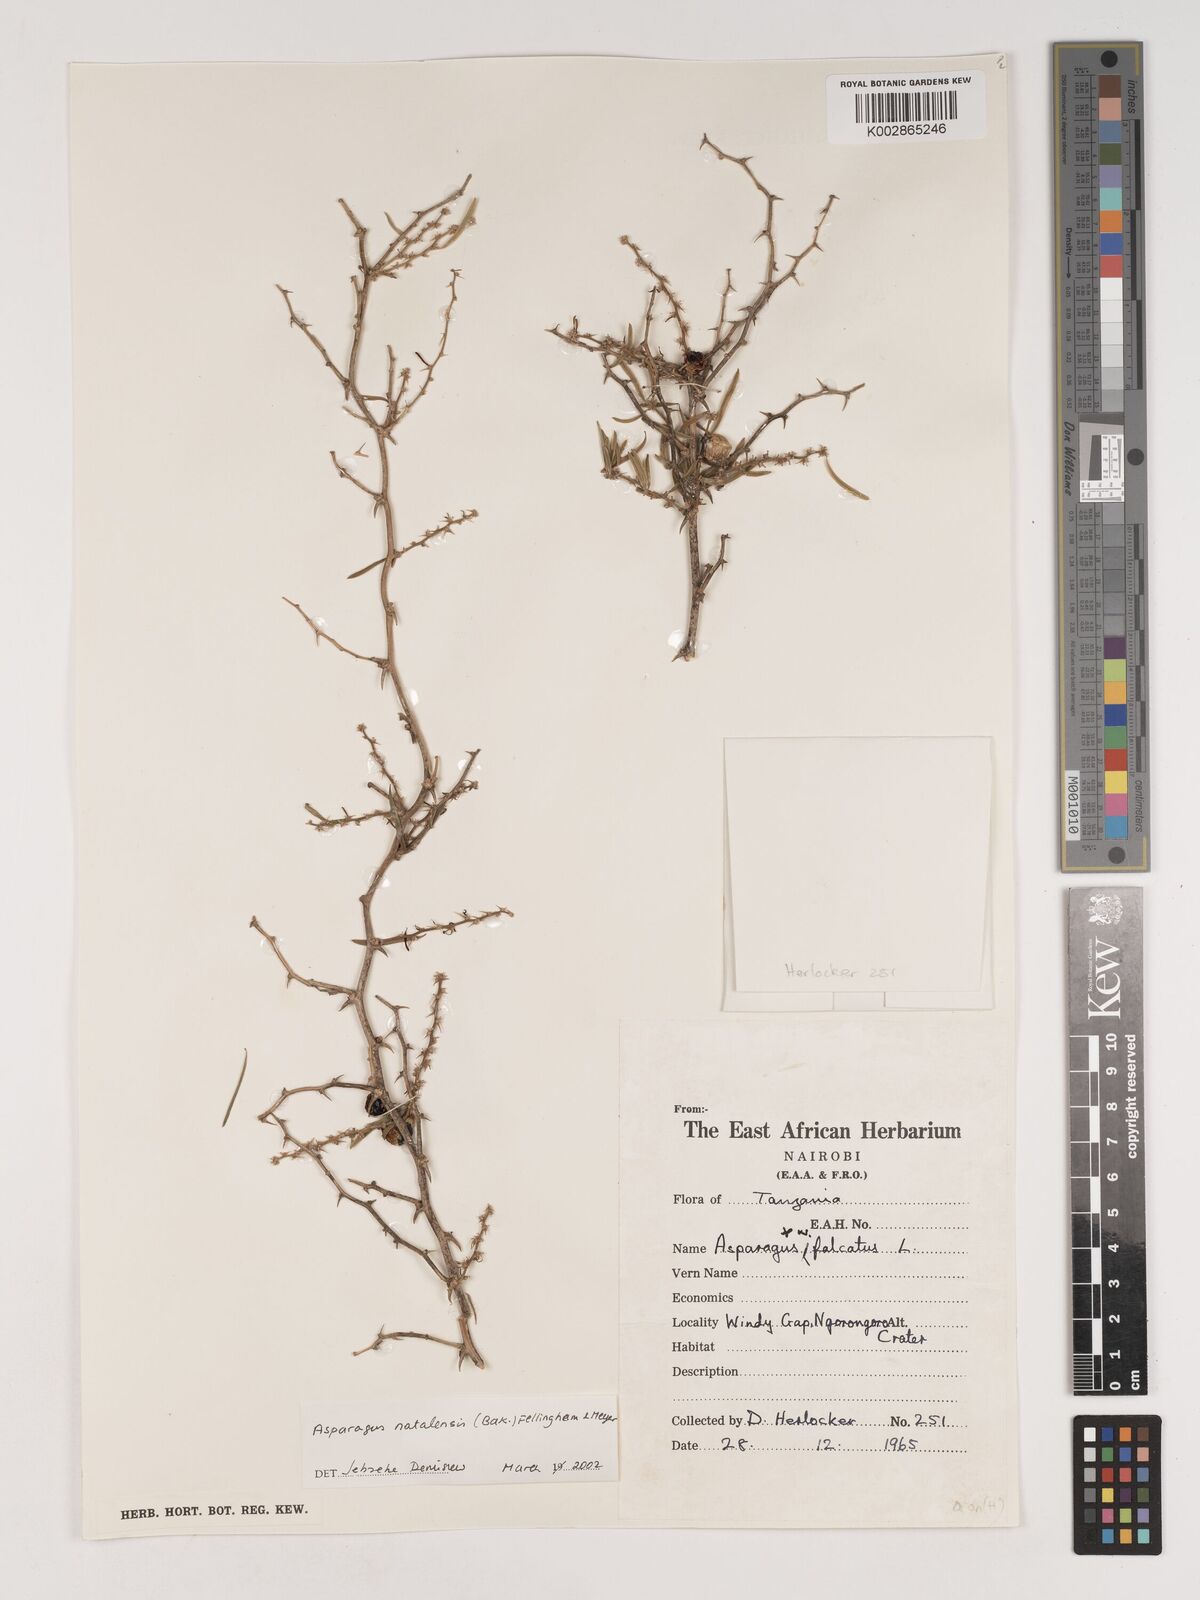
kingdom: Plantae
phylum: Tracheophyta
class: Liliopsida
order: Asparagales
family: Asparagaceae
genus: Asparagus
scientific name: Asparagus natalensis
